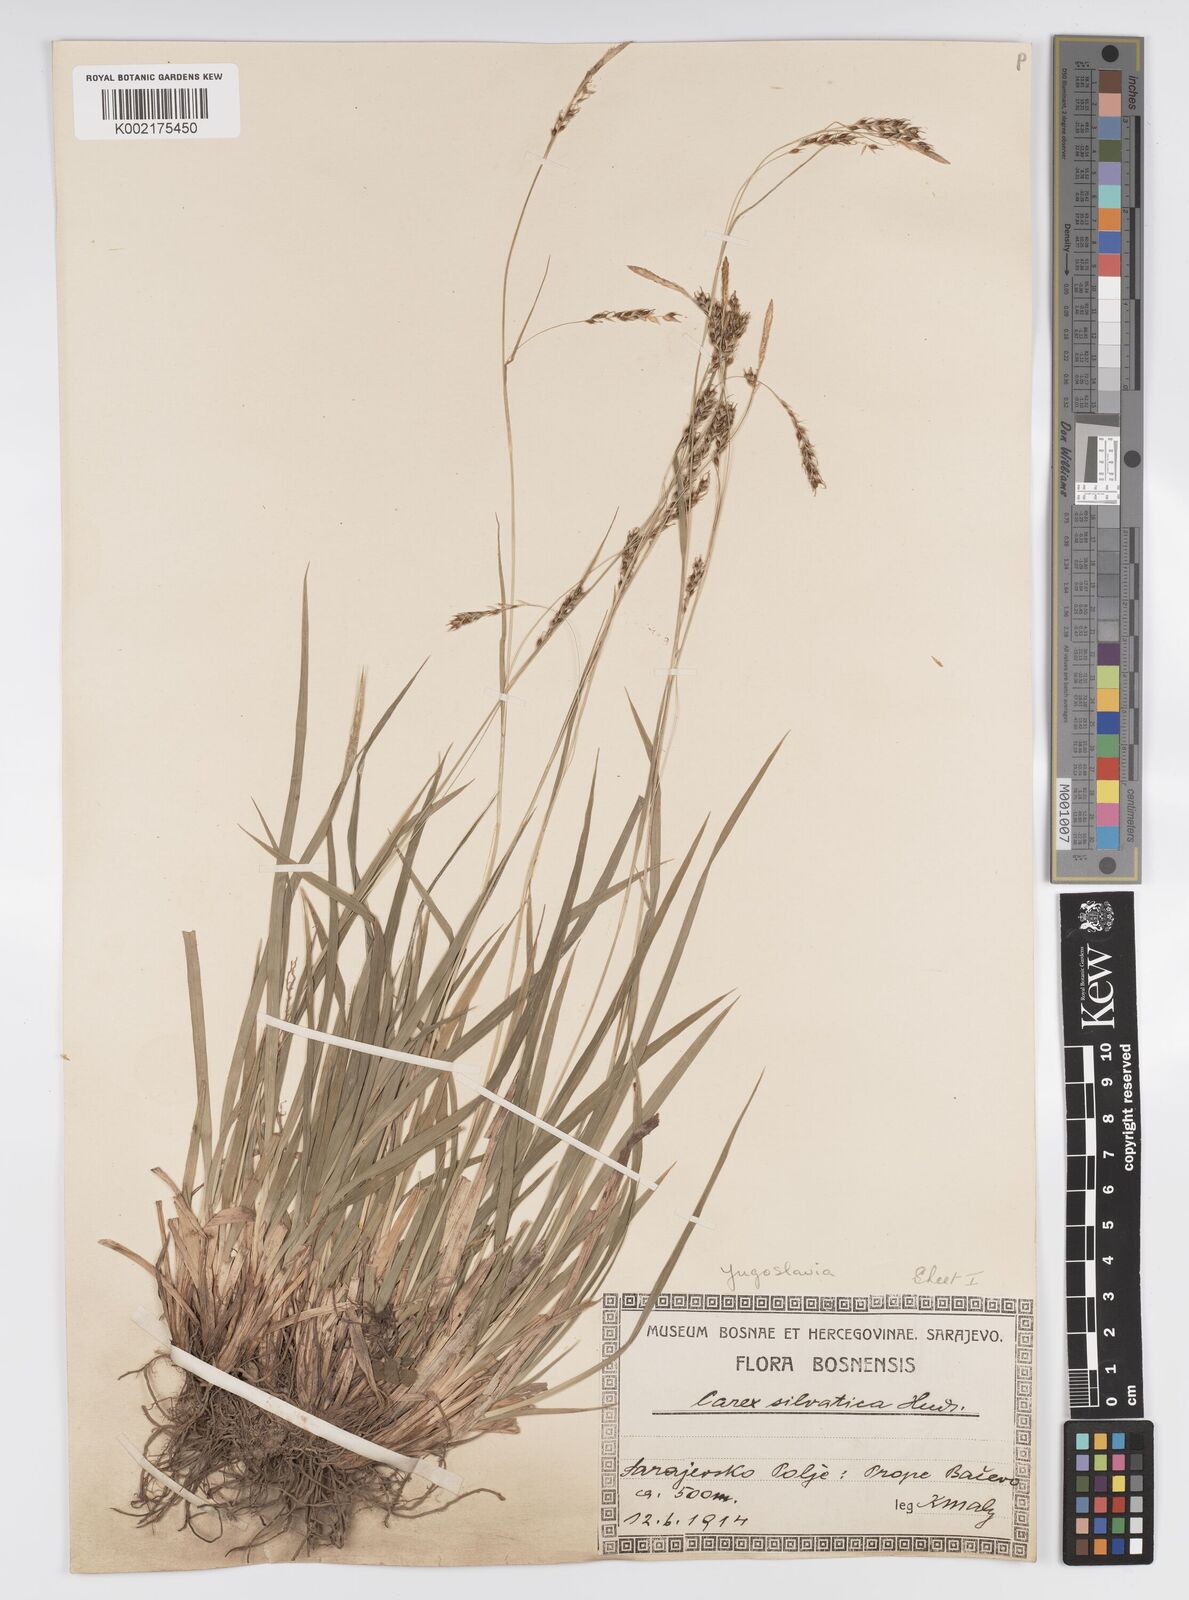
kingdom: Plantae
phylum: Tracheophyta
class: Liliopsida
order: Poales
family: Cyperaceae
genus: Carex
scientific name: Carex sylvatica
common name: Wood-sedge
